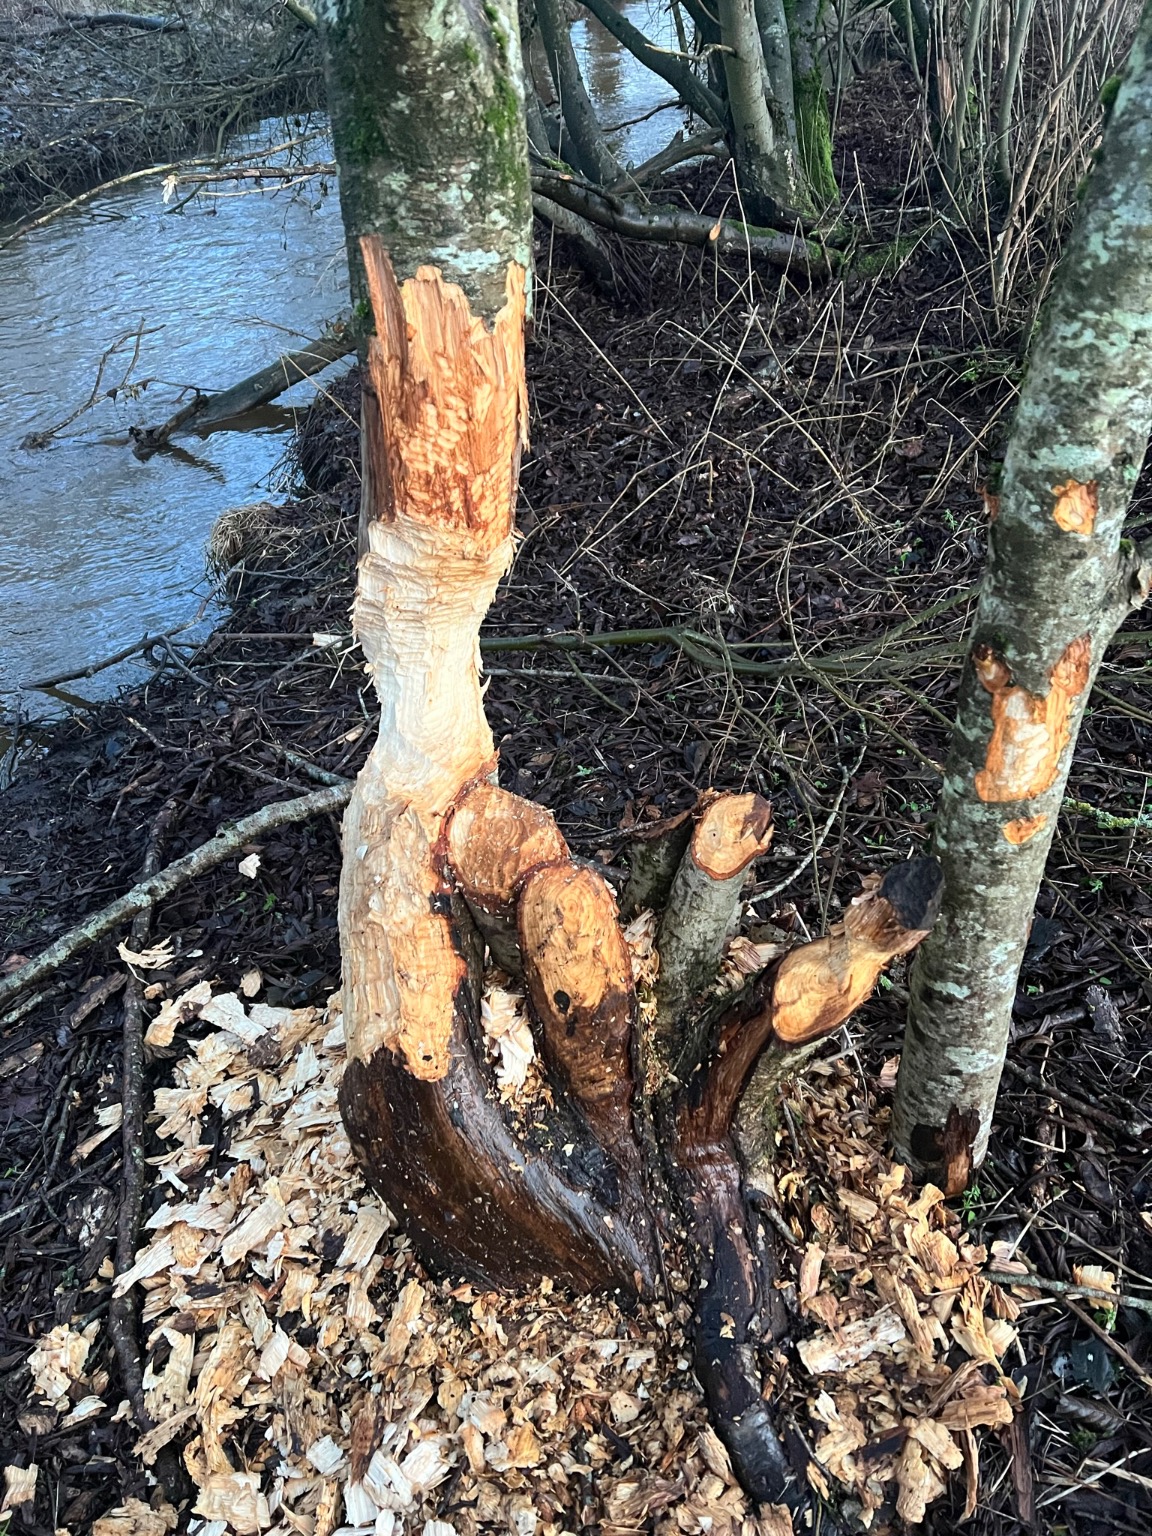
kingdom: Animalia
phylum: Chordata
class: Mammalia
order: Rodentia
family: Castoridae
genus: Castor
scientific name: Castor fiber
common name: Bæver
